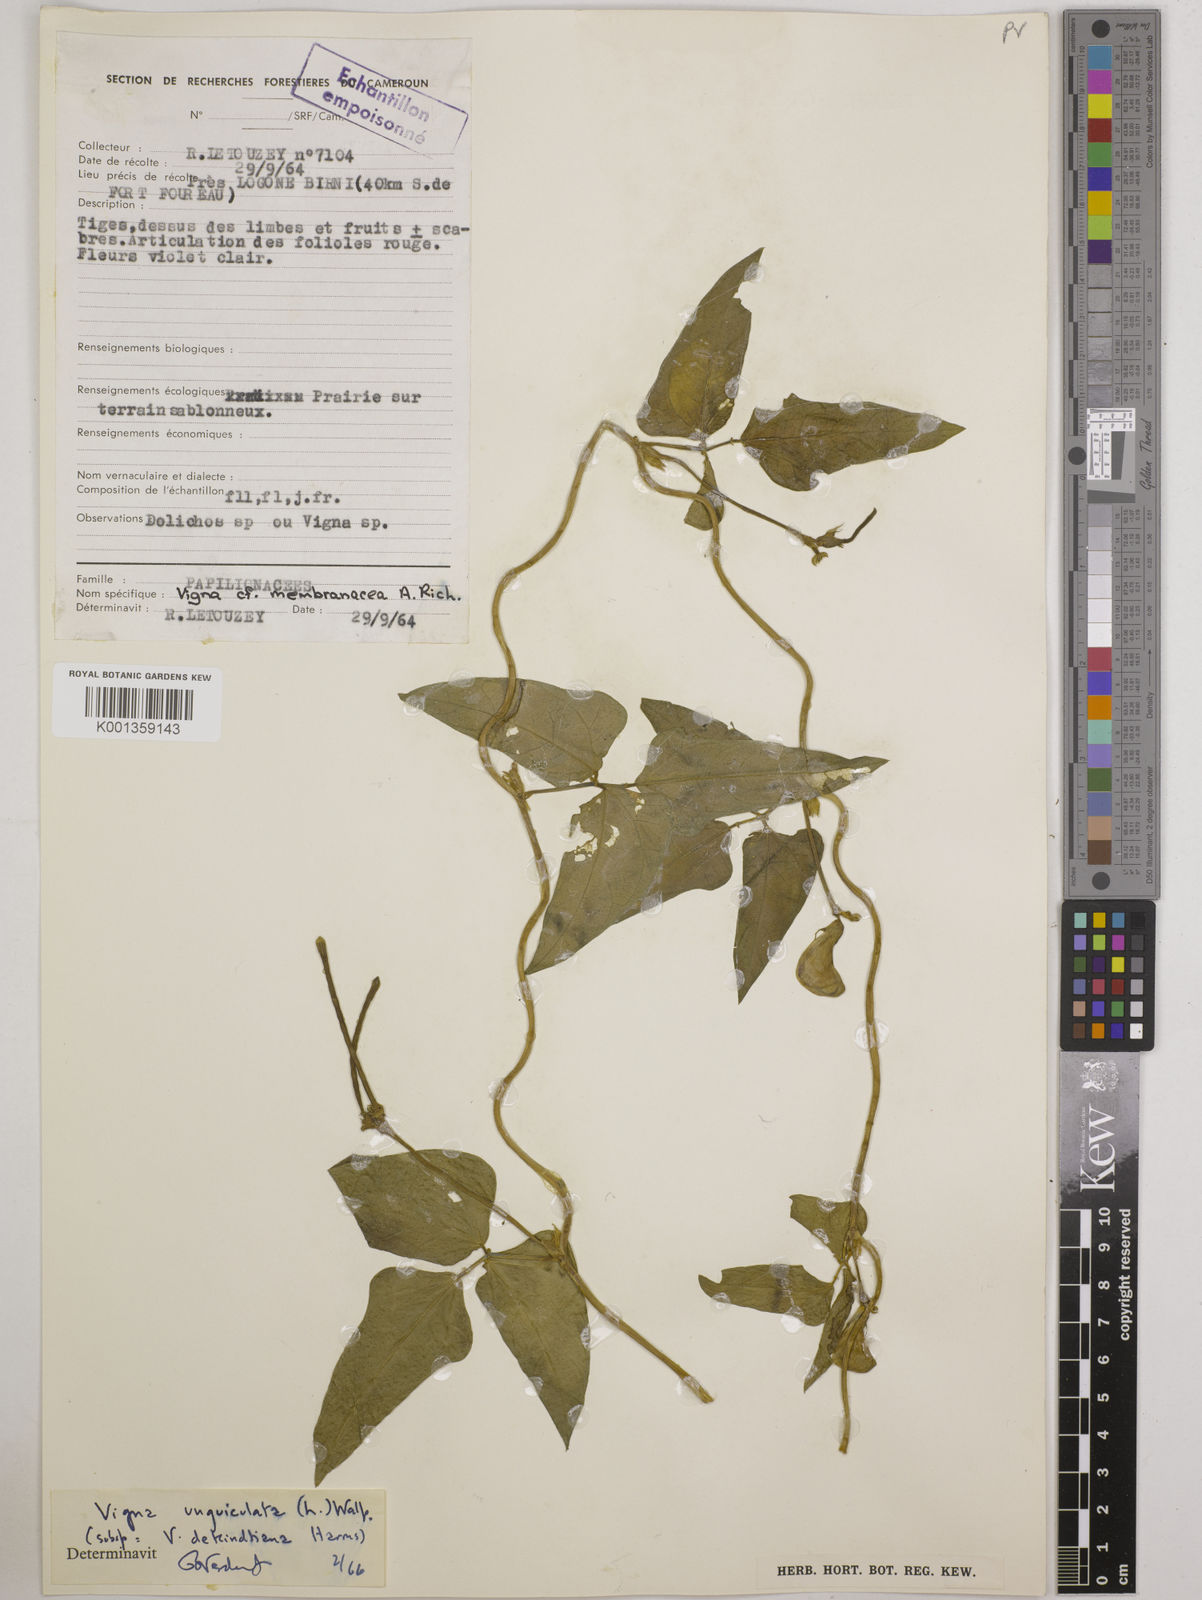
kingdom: Plantae
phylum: Tracheophyta
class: Magnoliopsida
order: Fabales
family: Fabaceae
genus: Vigna
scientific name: Vigna
